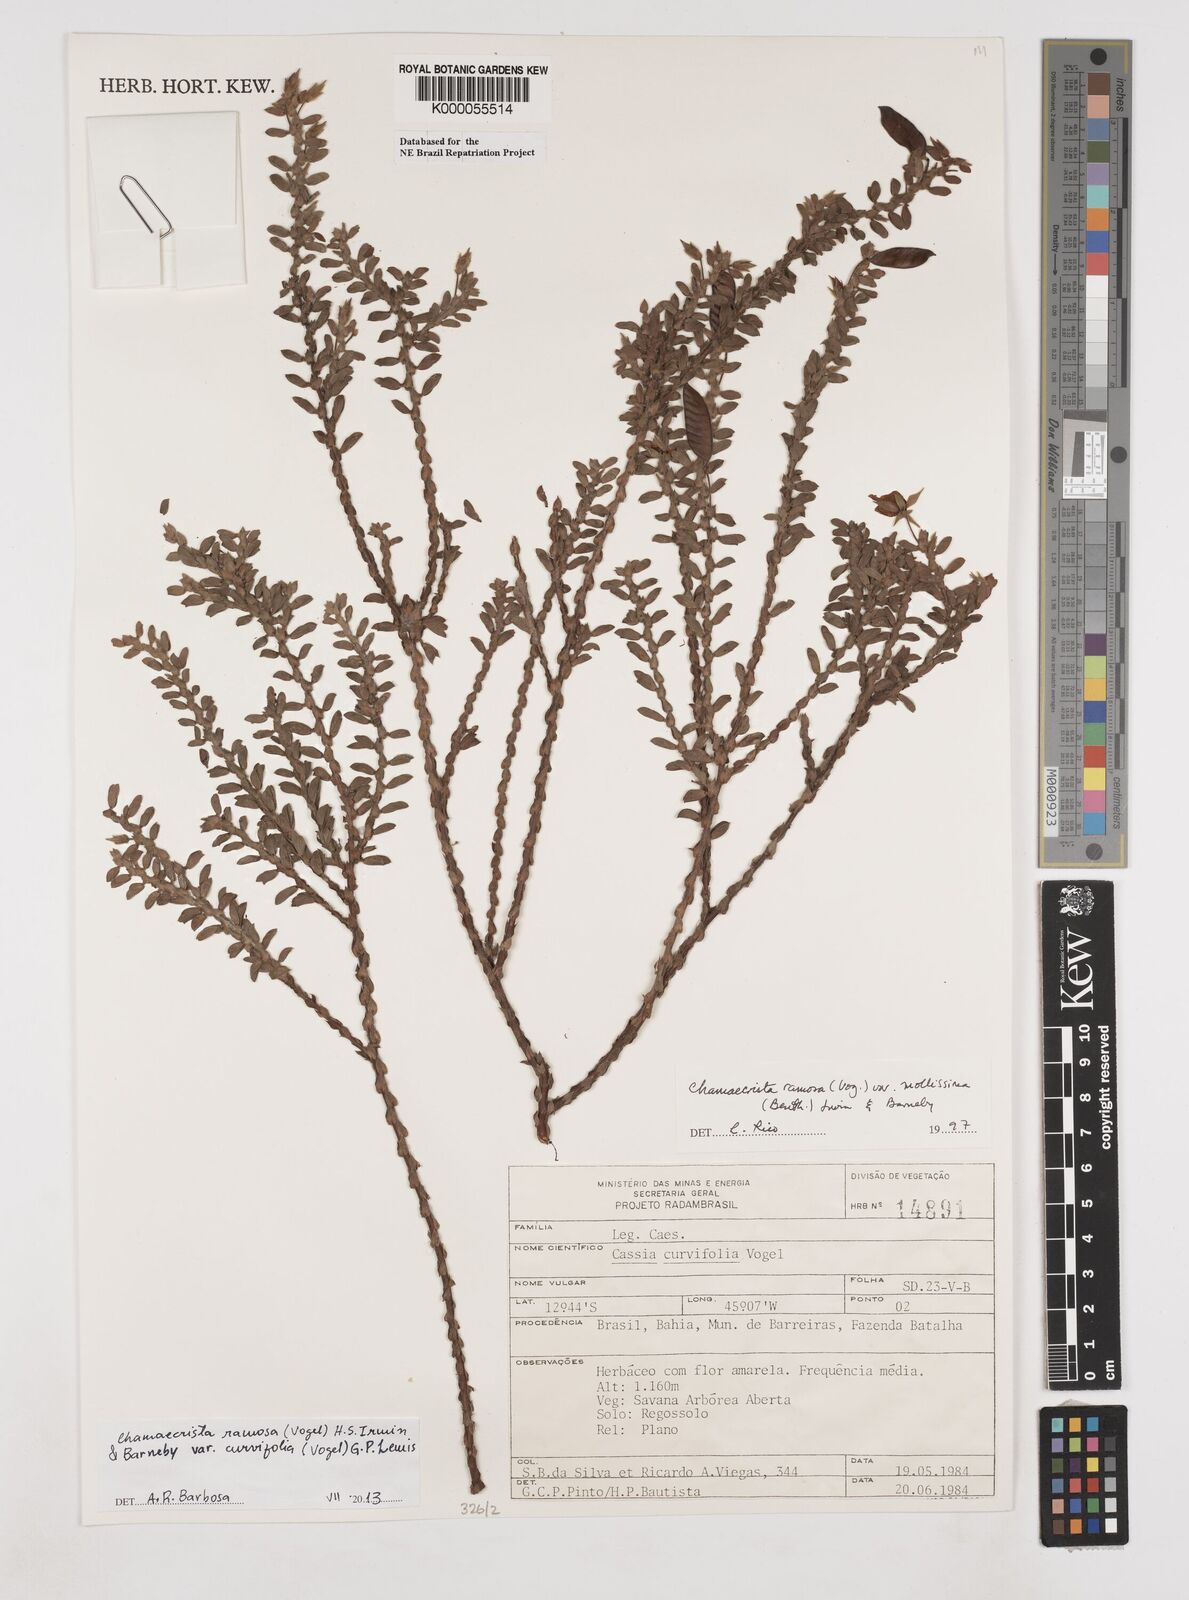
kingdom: Plantae
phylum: Tracheophyta
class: Magnoliopsida
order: Fabales
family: Fabaceae
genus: Chamaecrista
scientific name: Chamaecrista ramosa
